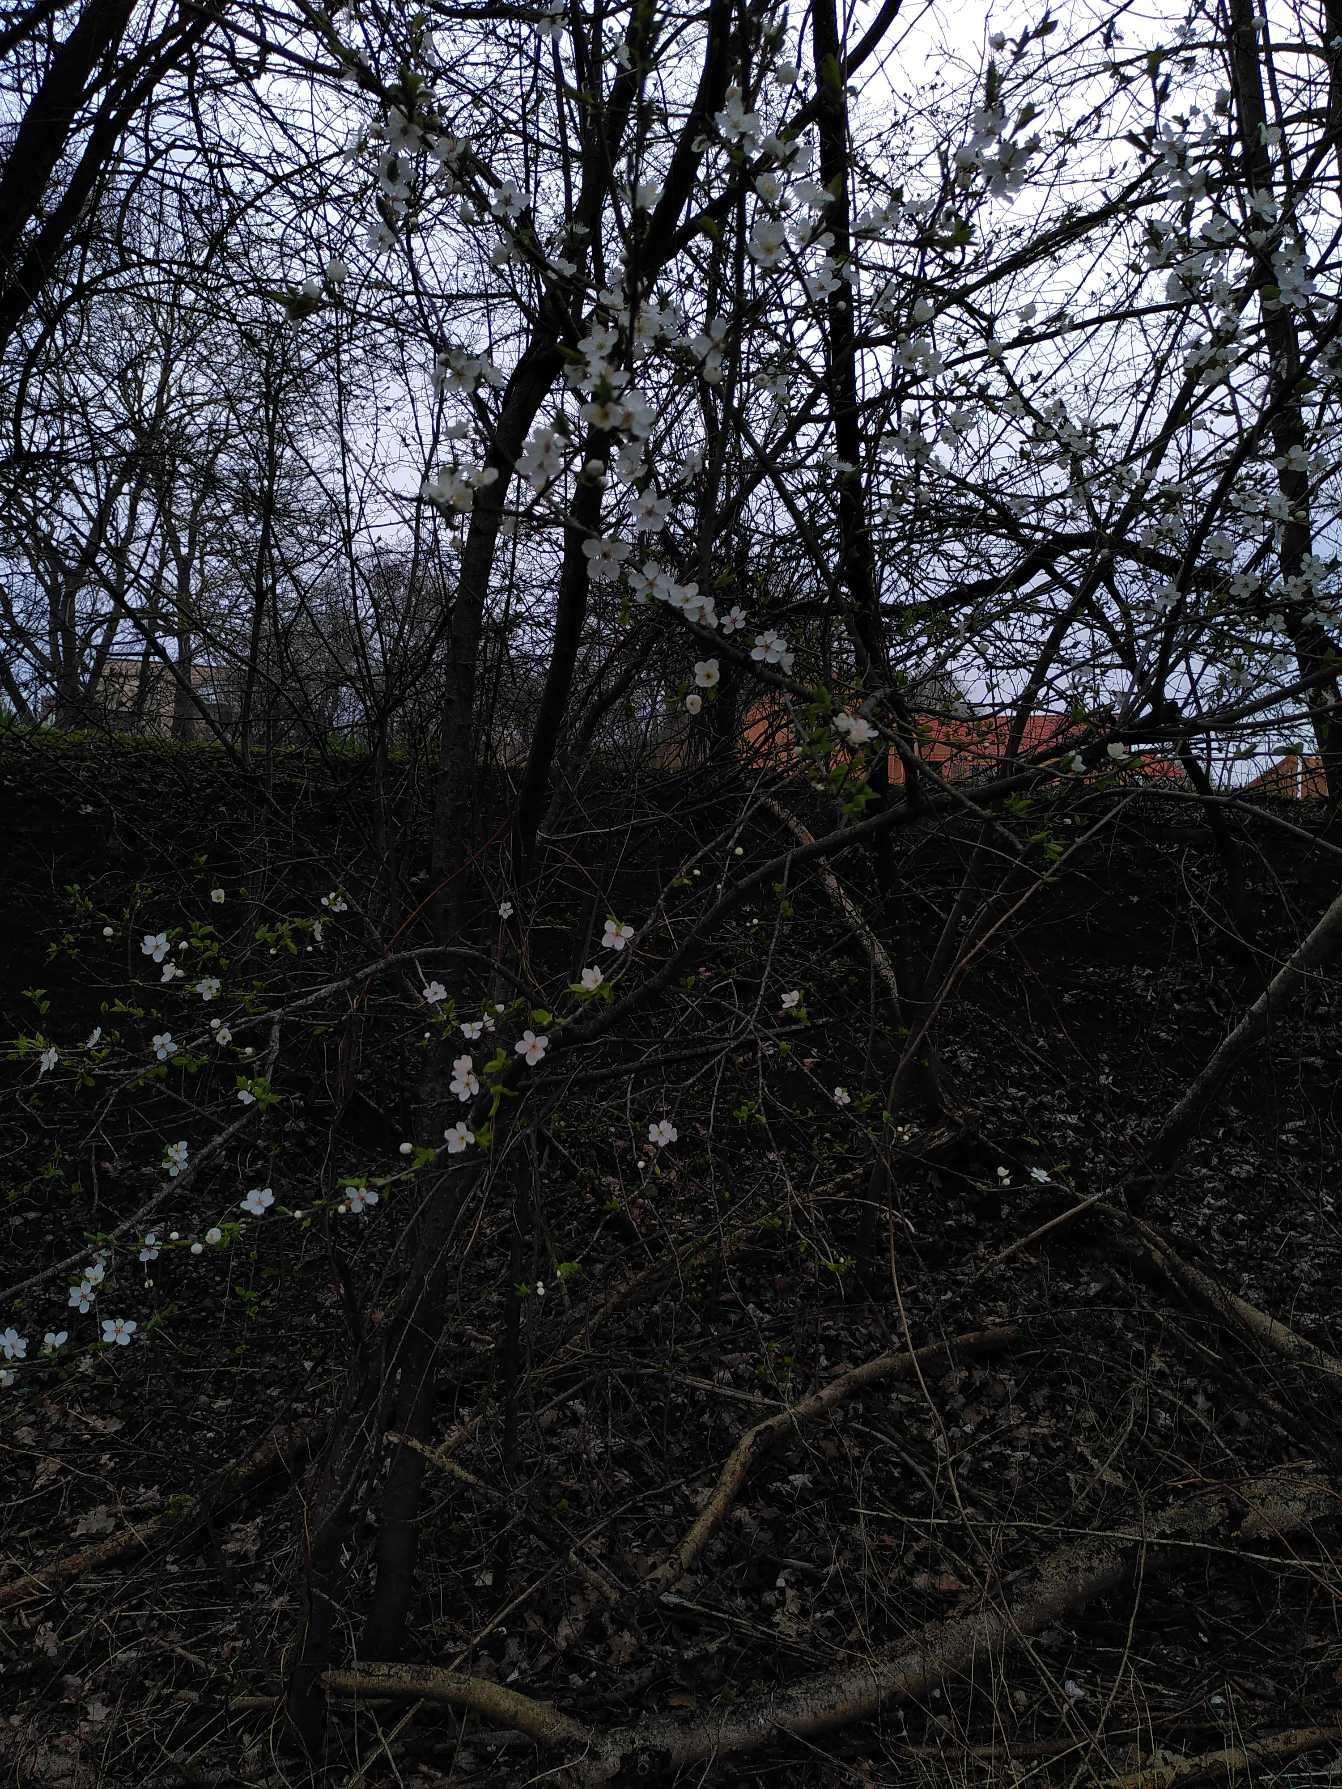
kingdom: Plantae
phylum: Tracheophyta
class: Magnoliopsida
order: Rosales
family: Rosaceae
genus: Prunus
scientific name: Prunus cerasifera
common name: Mirabel
